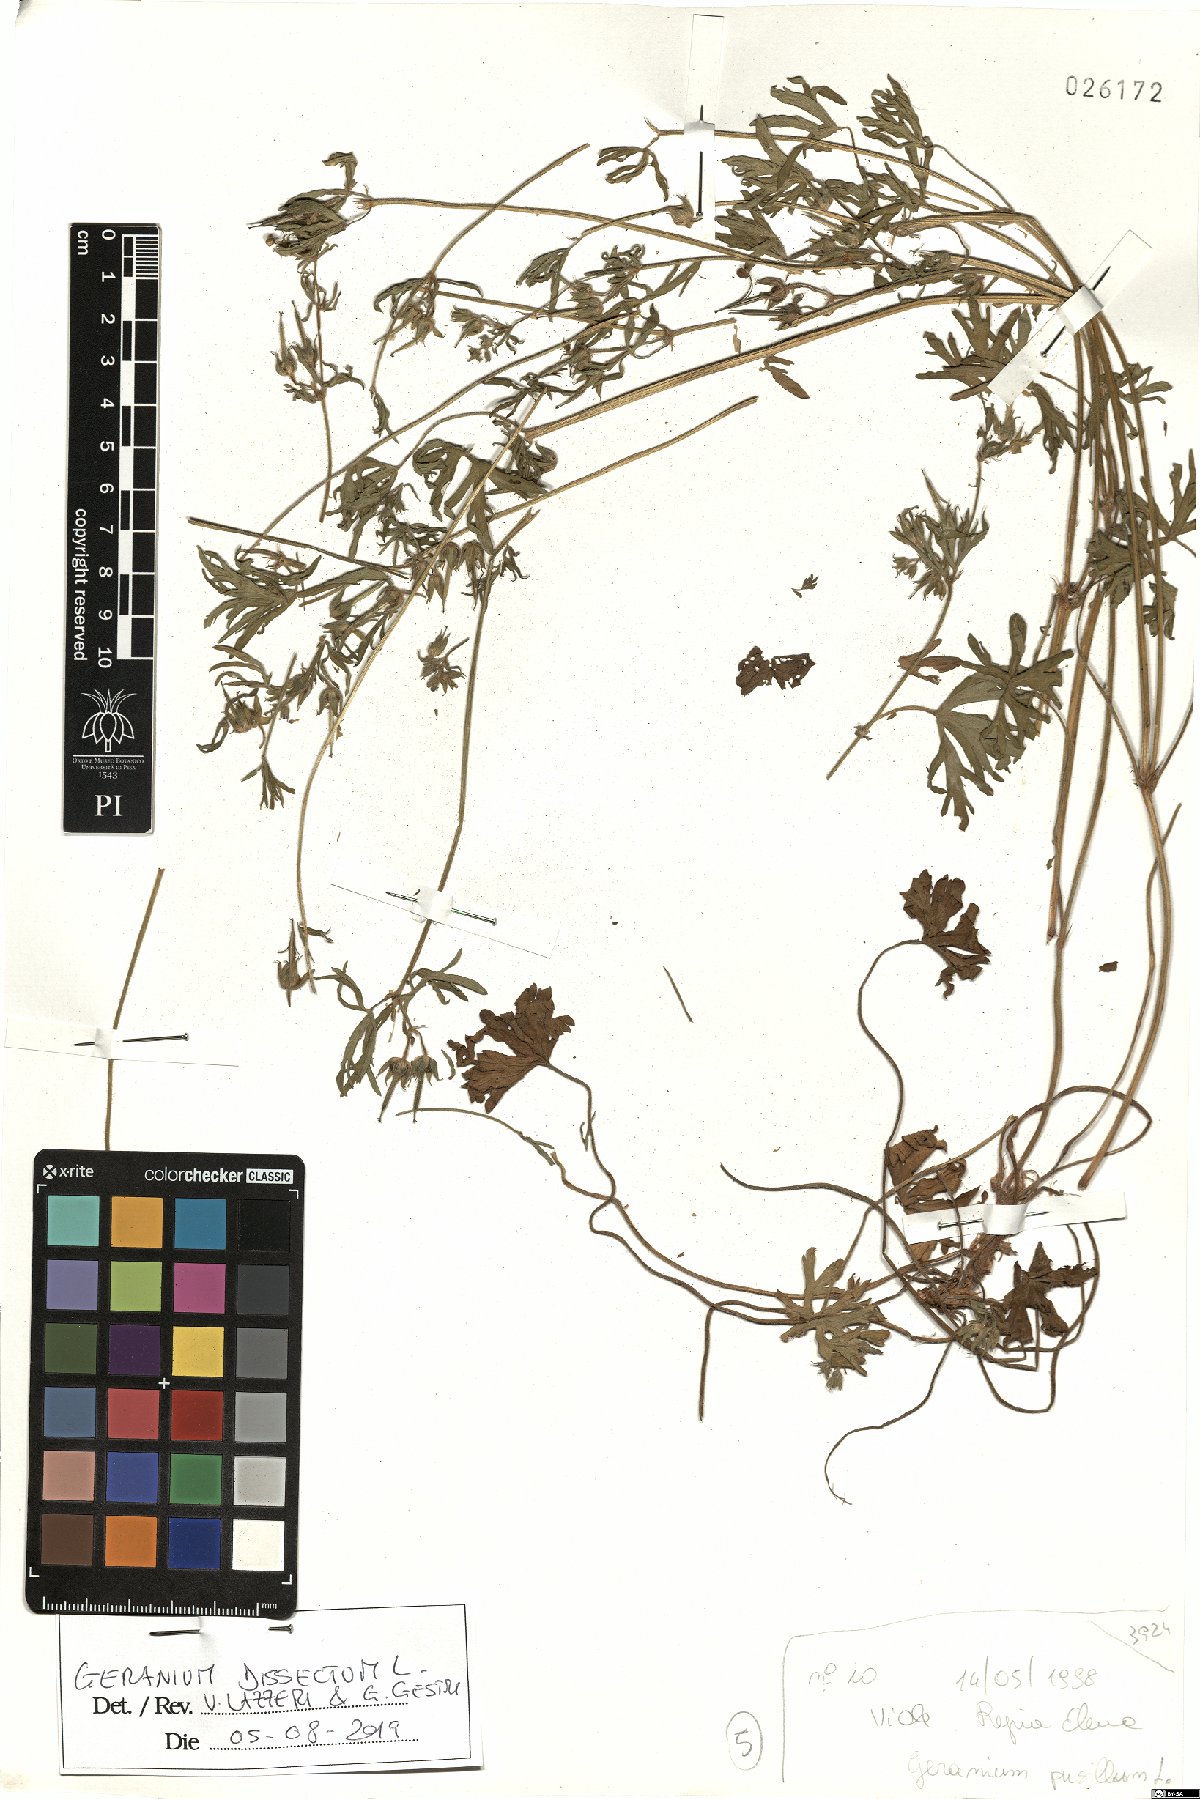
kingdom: Plantae
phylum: Tracheophyta
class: Magnoliopsida
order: Geraniales
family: Geraniaceae
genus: Geranium
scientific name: Geranium dissectum
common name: Cut-leaved crane's-bill
